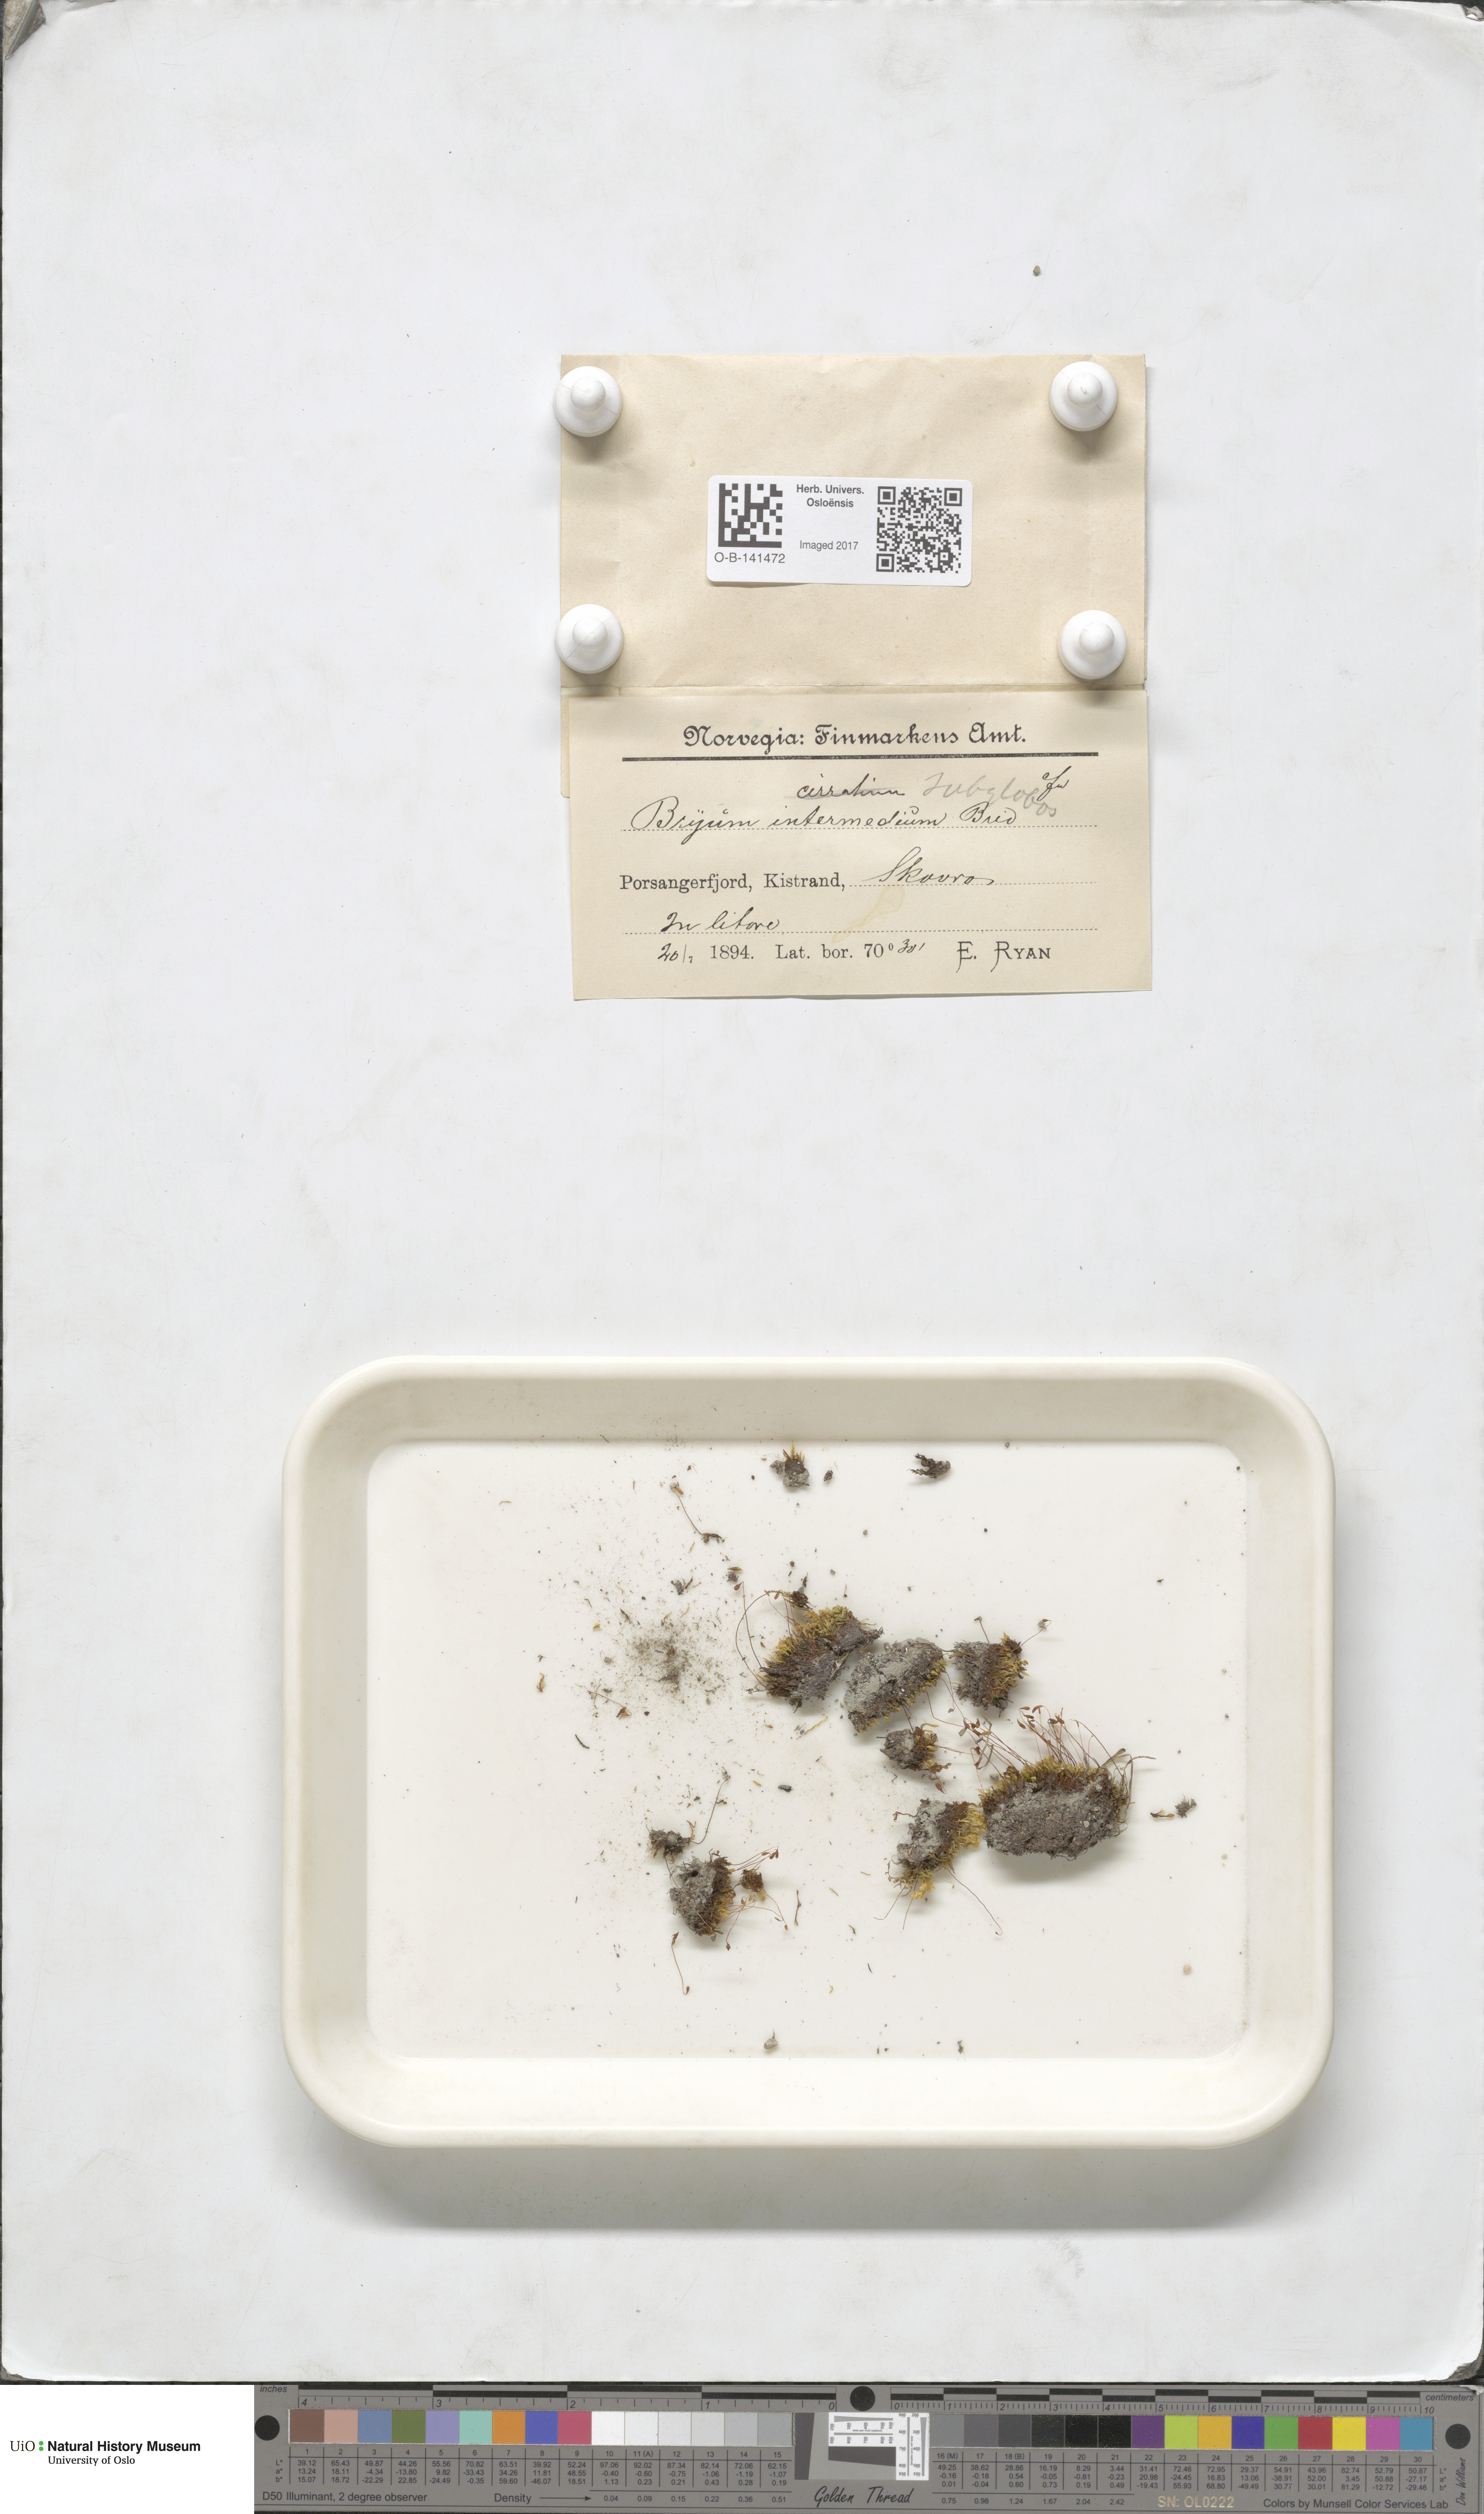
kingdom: Plantae
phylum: Bryophyta
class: Bryopsida
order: Bryales
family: Bryaceae
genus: Ptychostomum
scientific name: Ptychostomum pallescens
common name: Tall-clustered thread-moss
